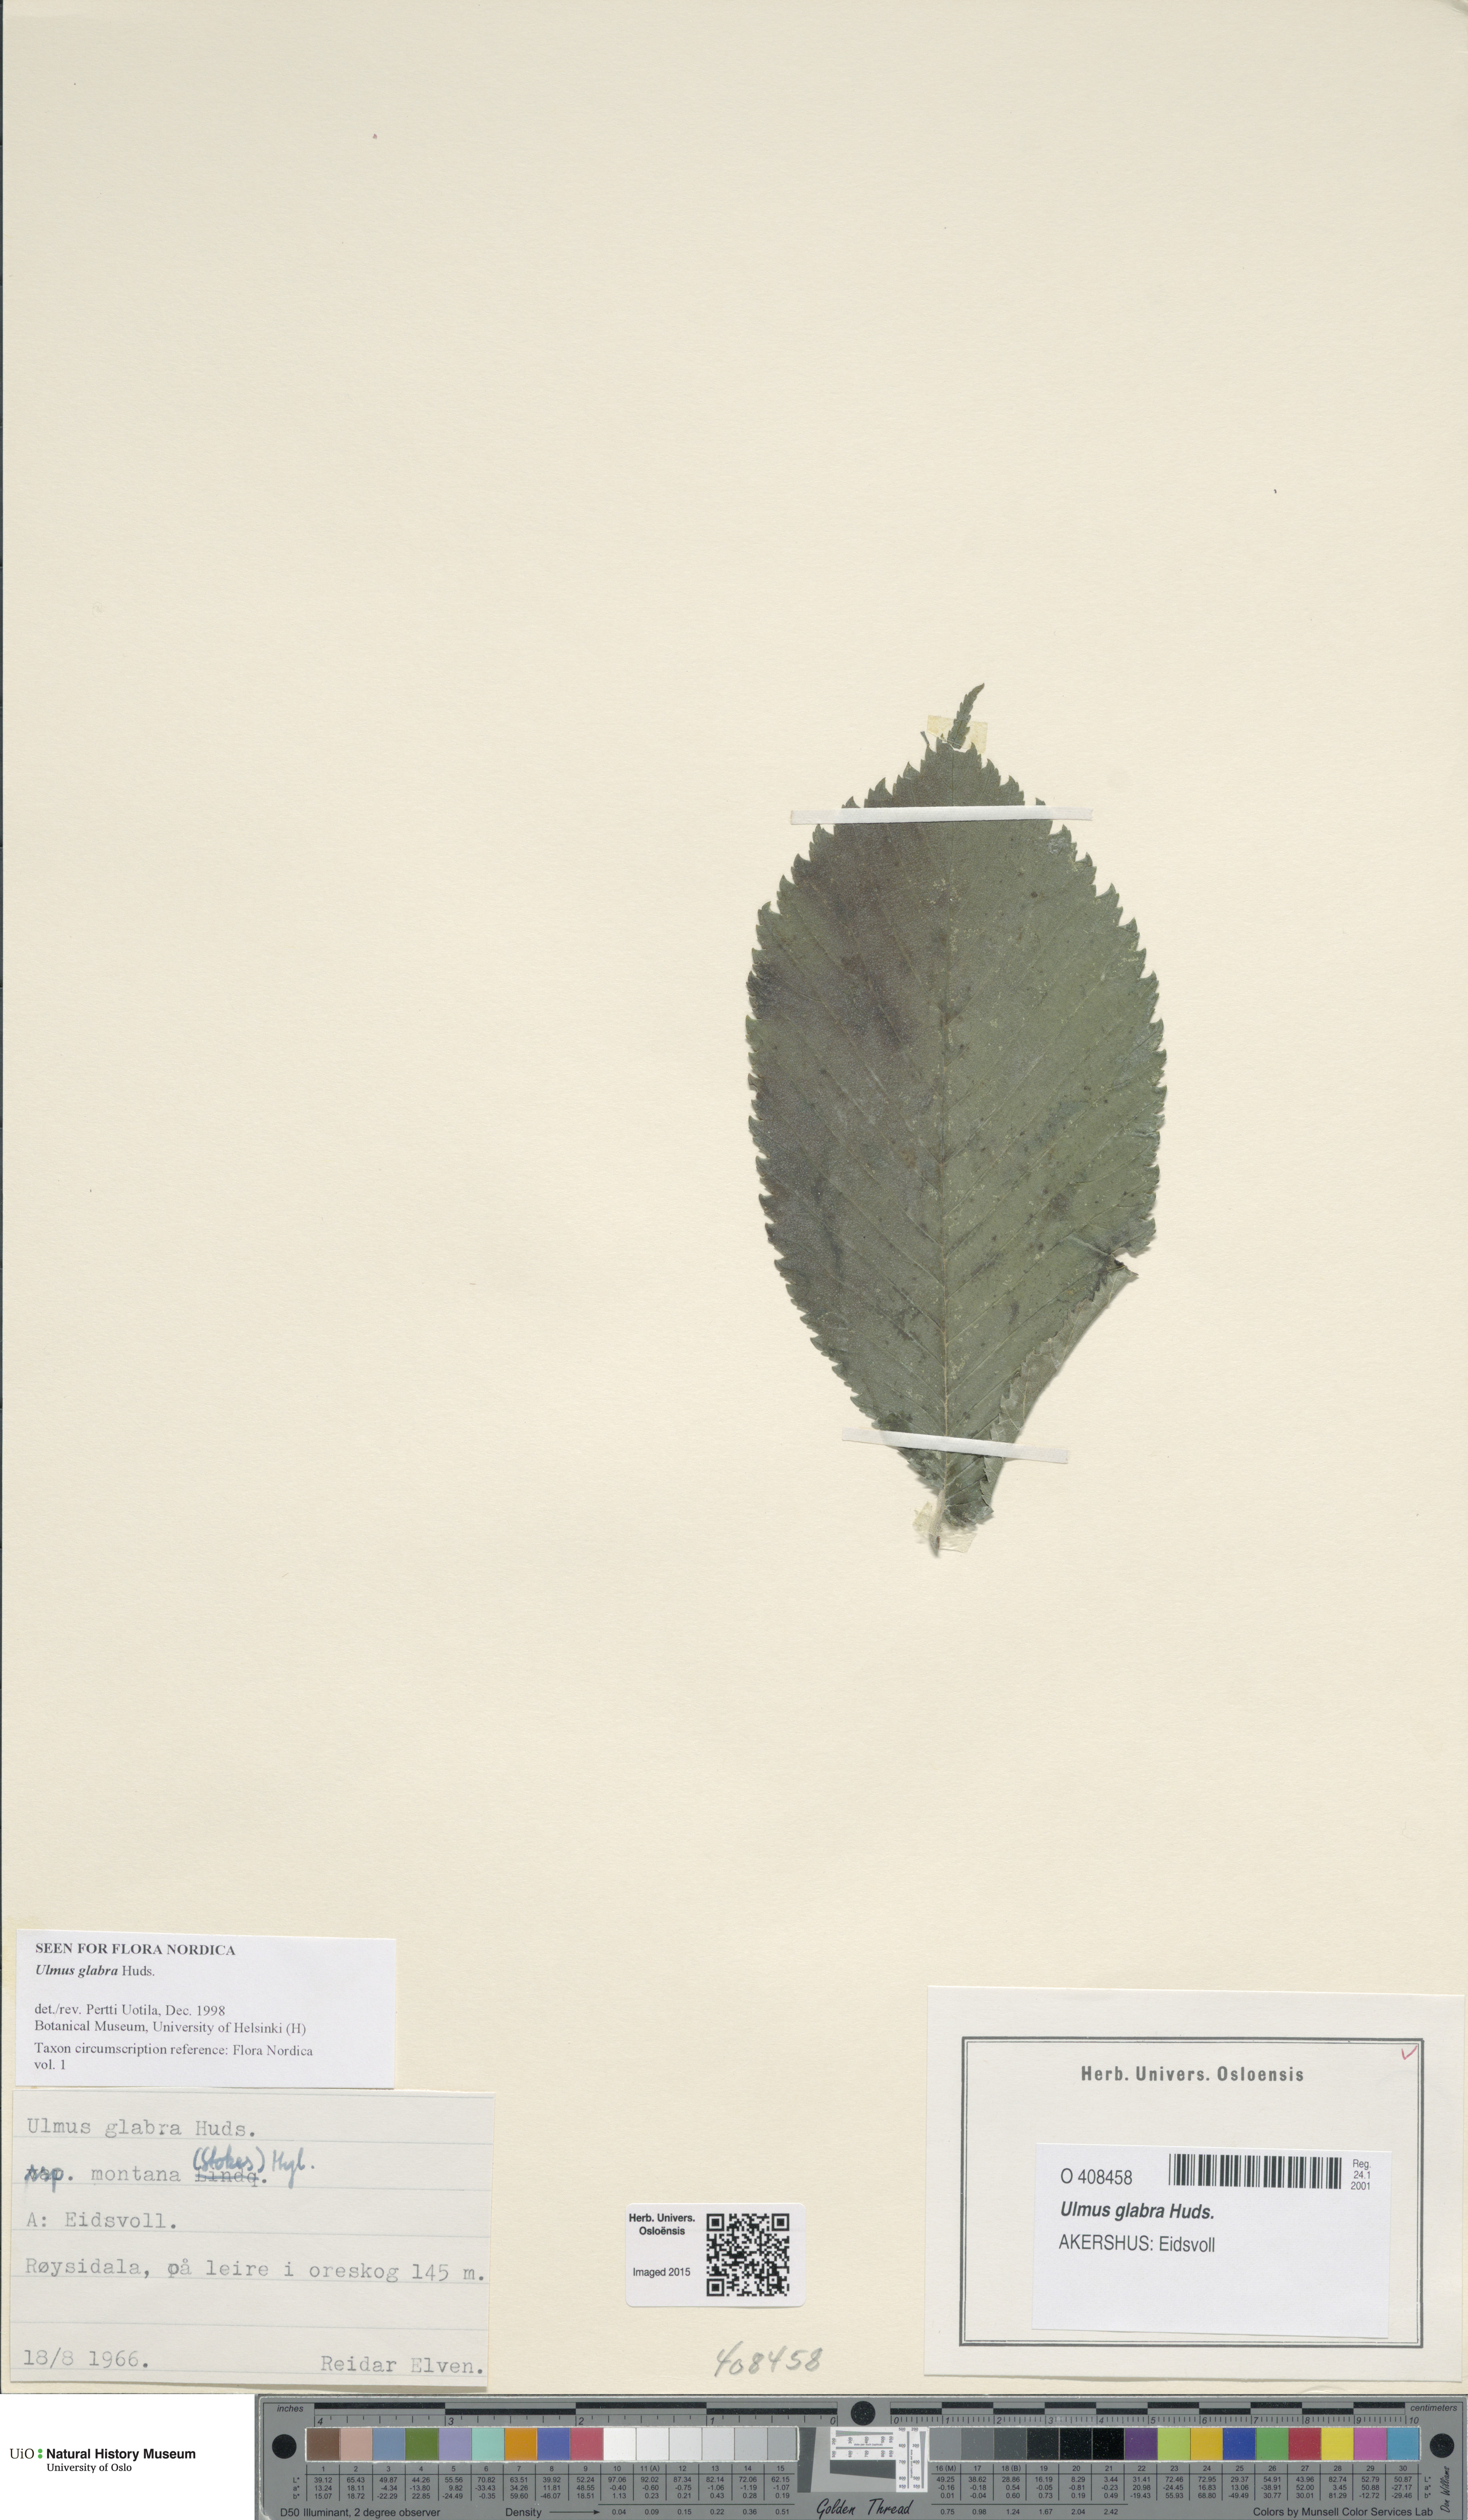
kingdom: Plantae
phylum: Tracheophyta
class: Magnoliopsida
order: Rosales
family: Ulmaceae
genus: Ulmus
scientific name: Ulmus glabra
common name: Wych elm
